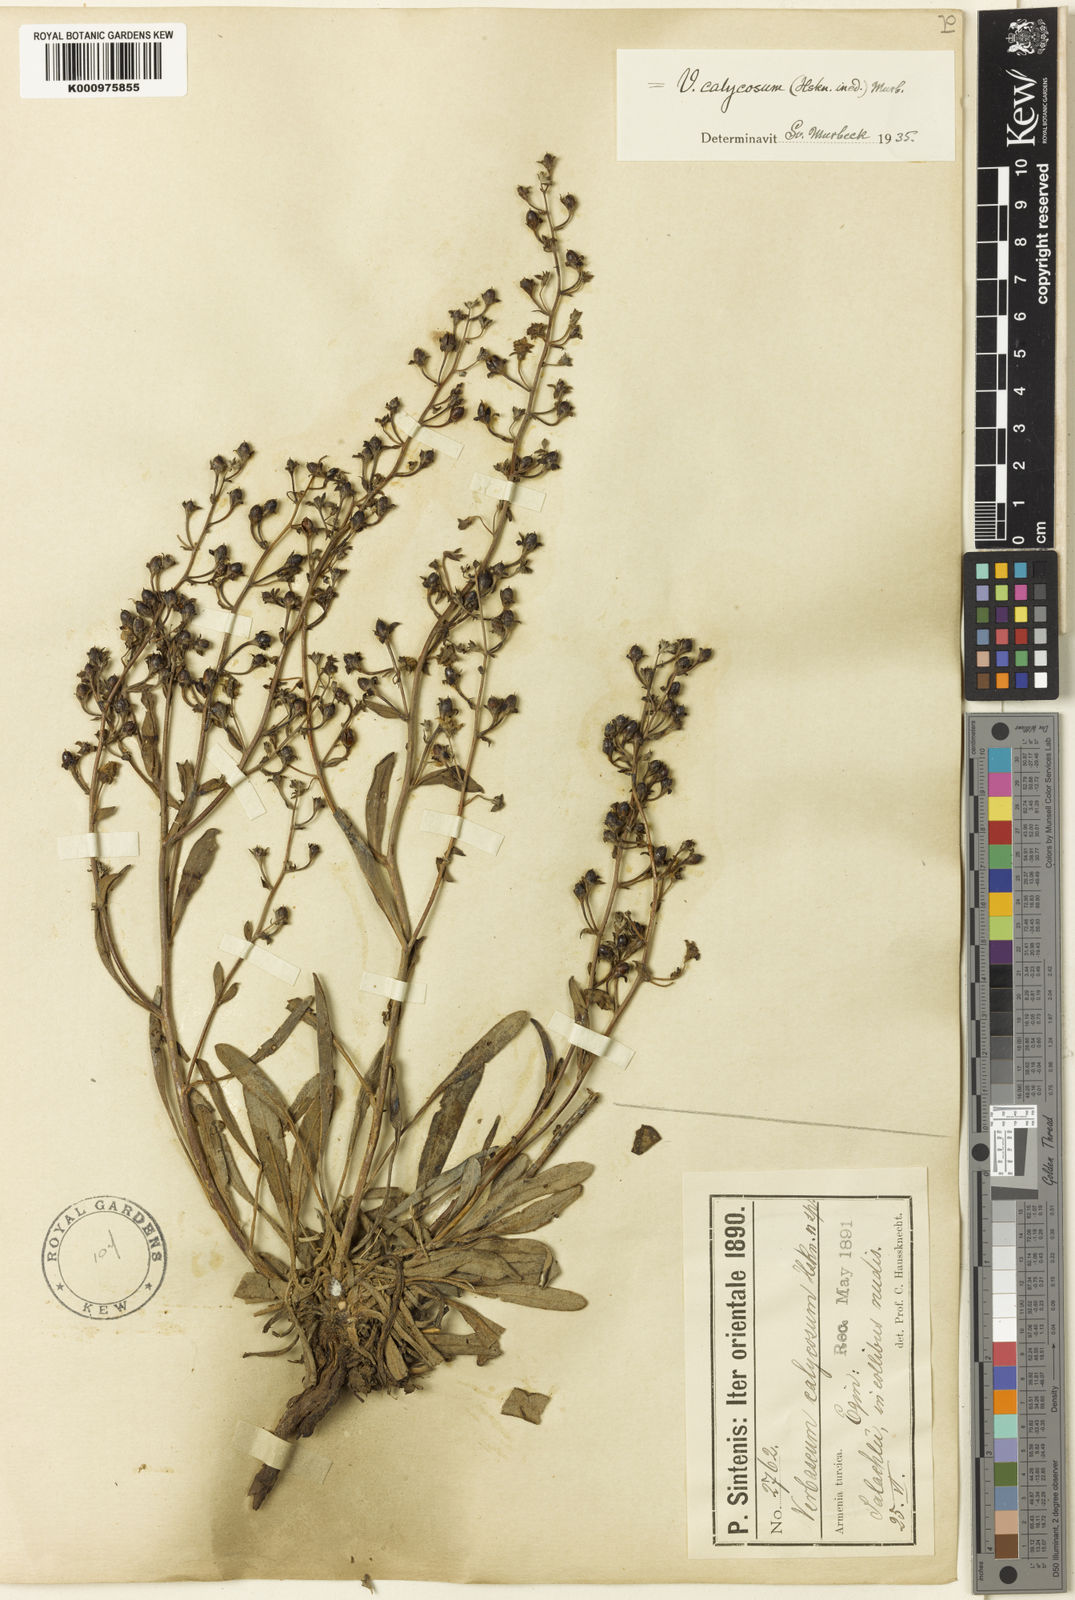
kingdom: Plantae
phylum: Tracheophyta
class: Magnoliopsida
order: Lamiales
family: Scrophulariaceae
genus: Verbascum
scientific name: Verbascum calycosum
